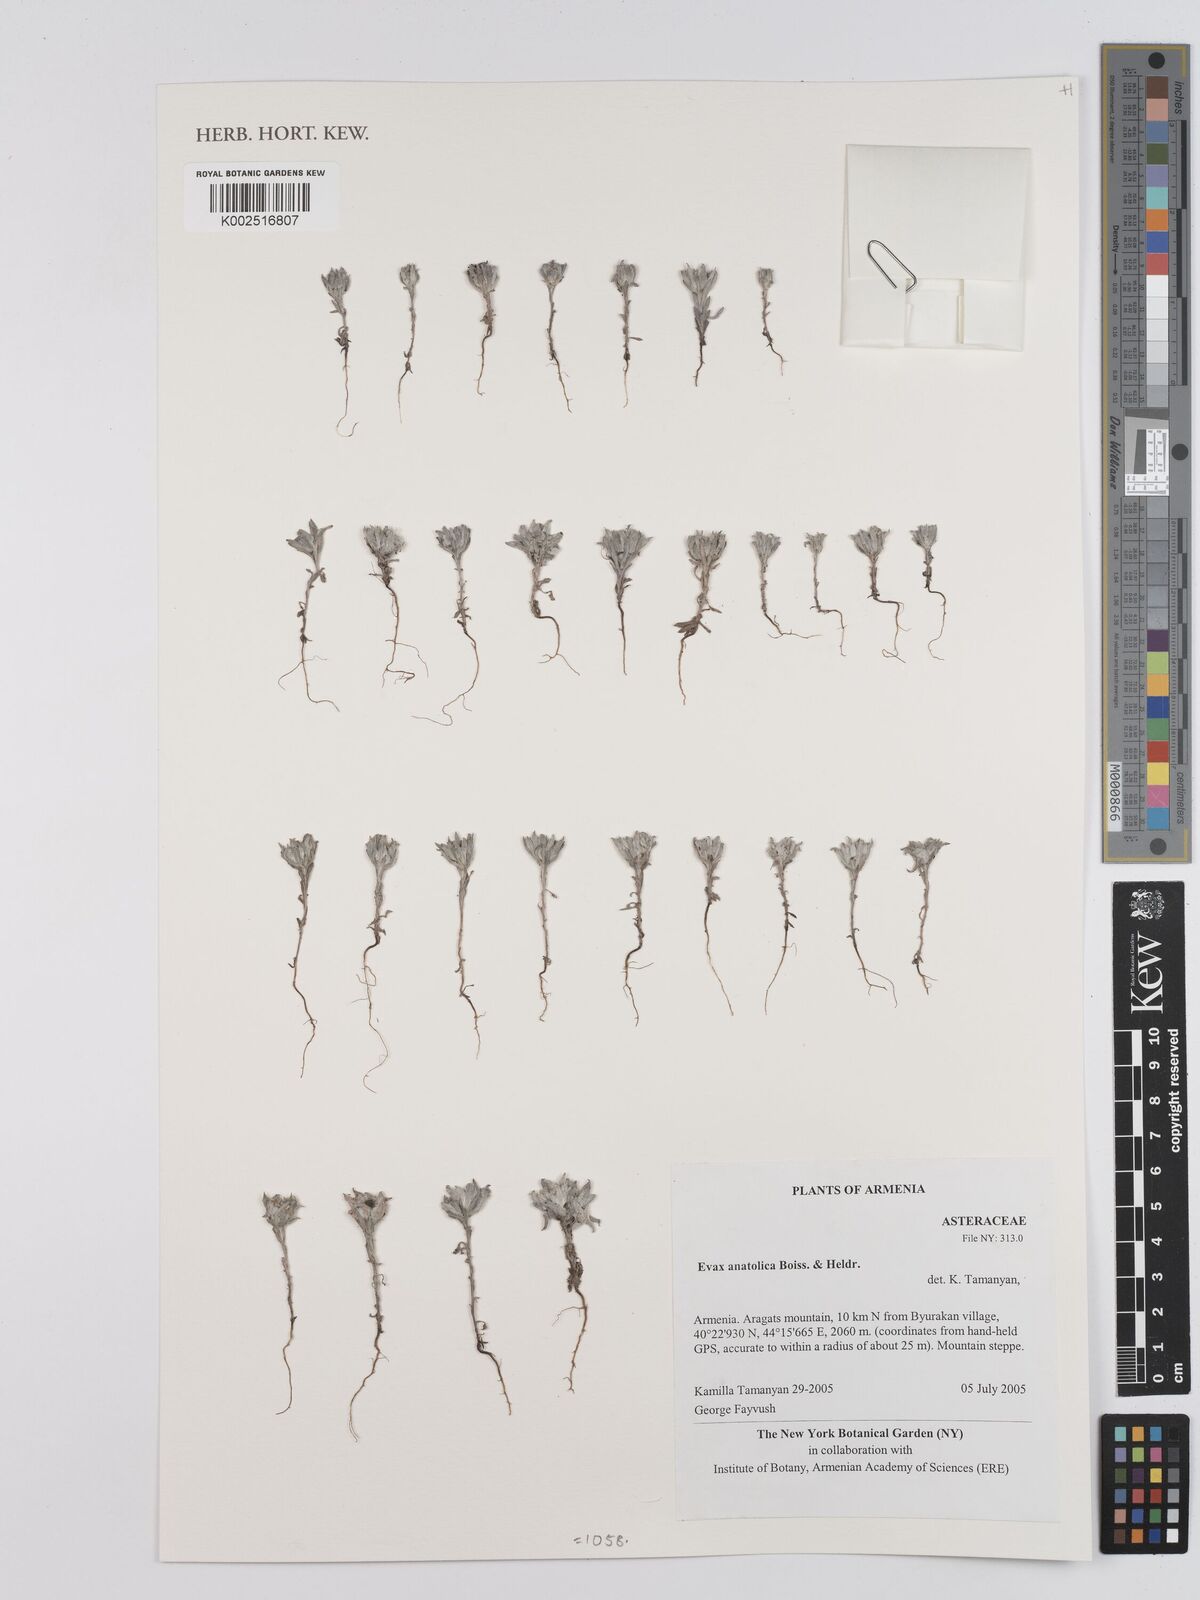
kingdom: Plantae
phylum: Tracheophyta
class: Magnoliopsida
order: Asterales
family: Asteraceae
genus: Filago
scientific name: Filago anatolica
